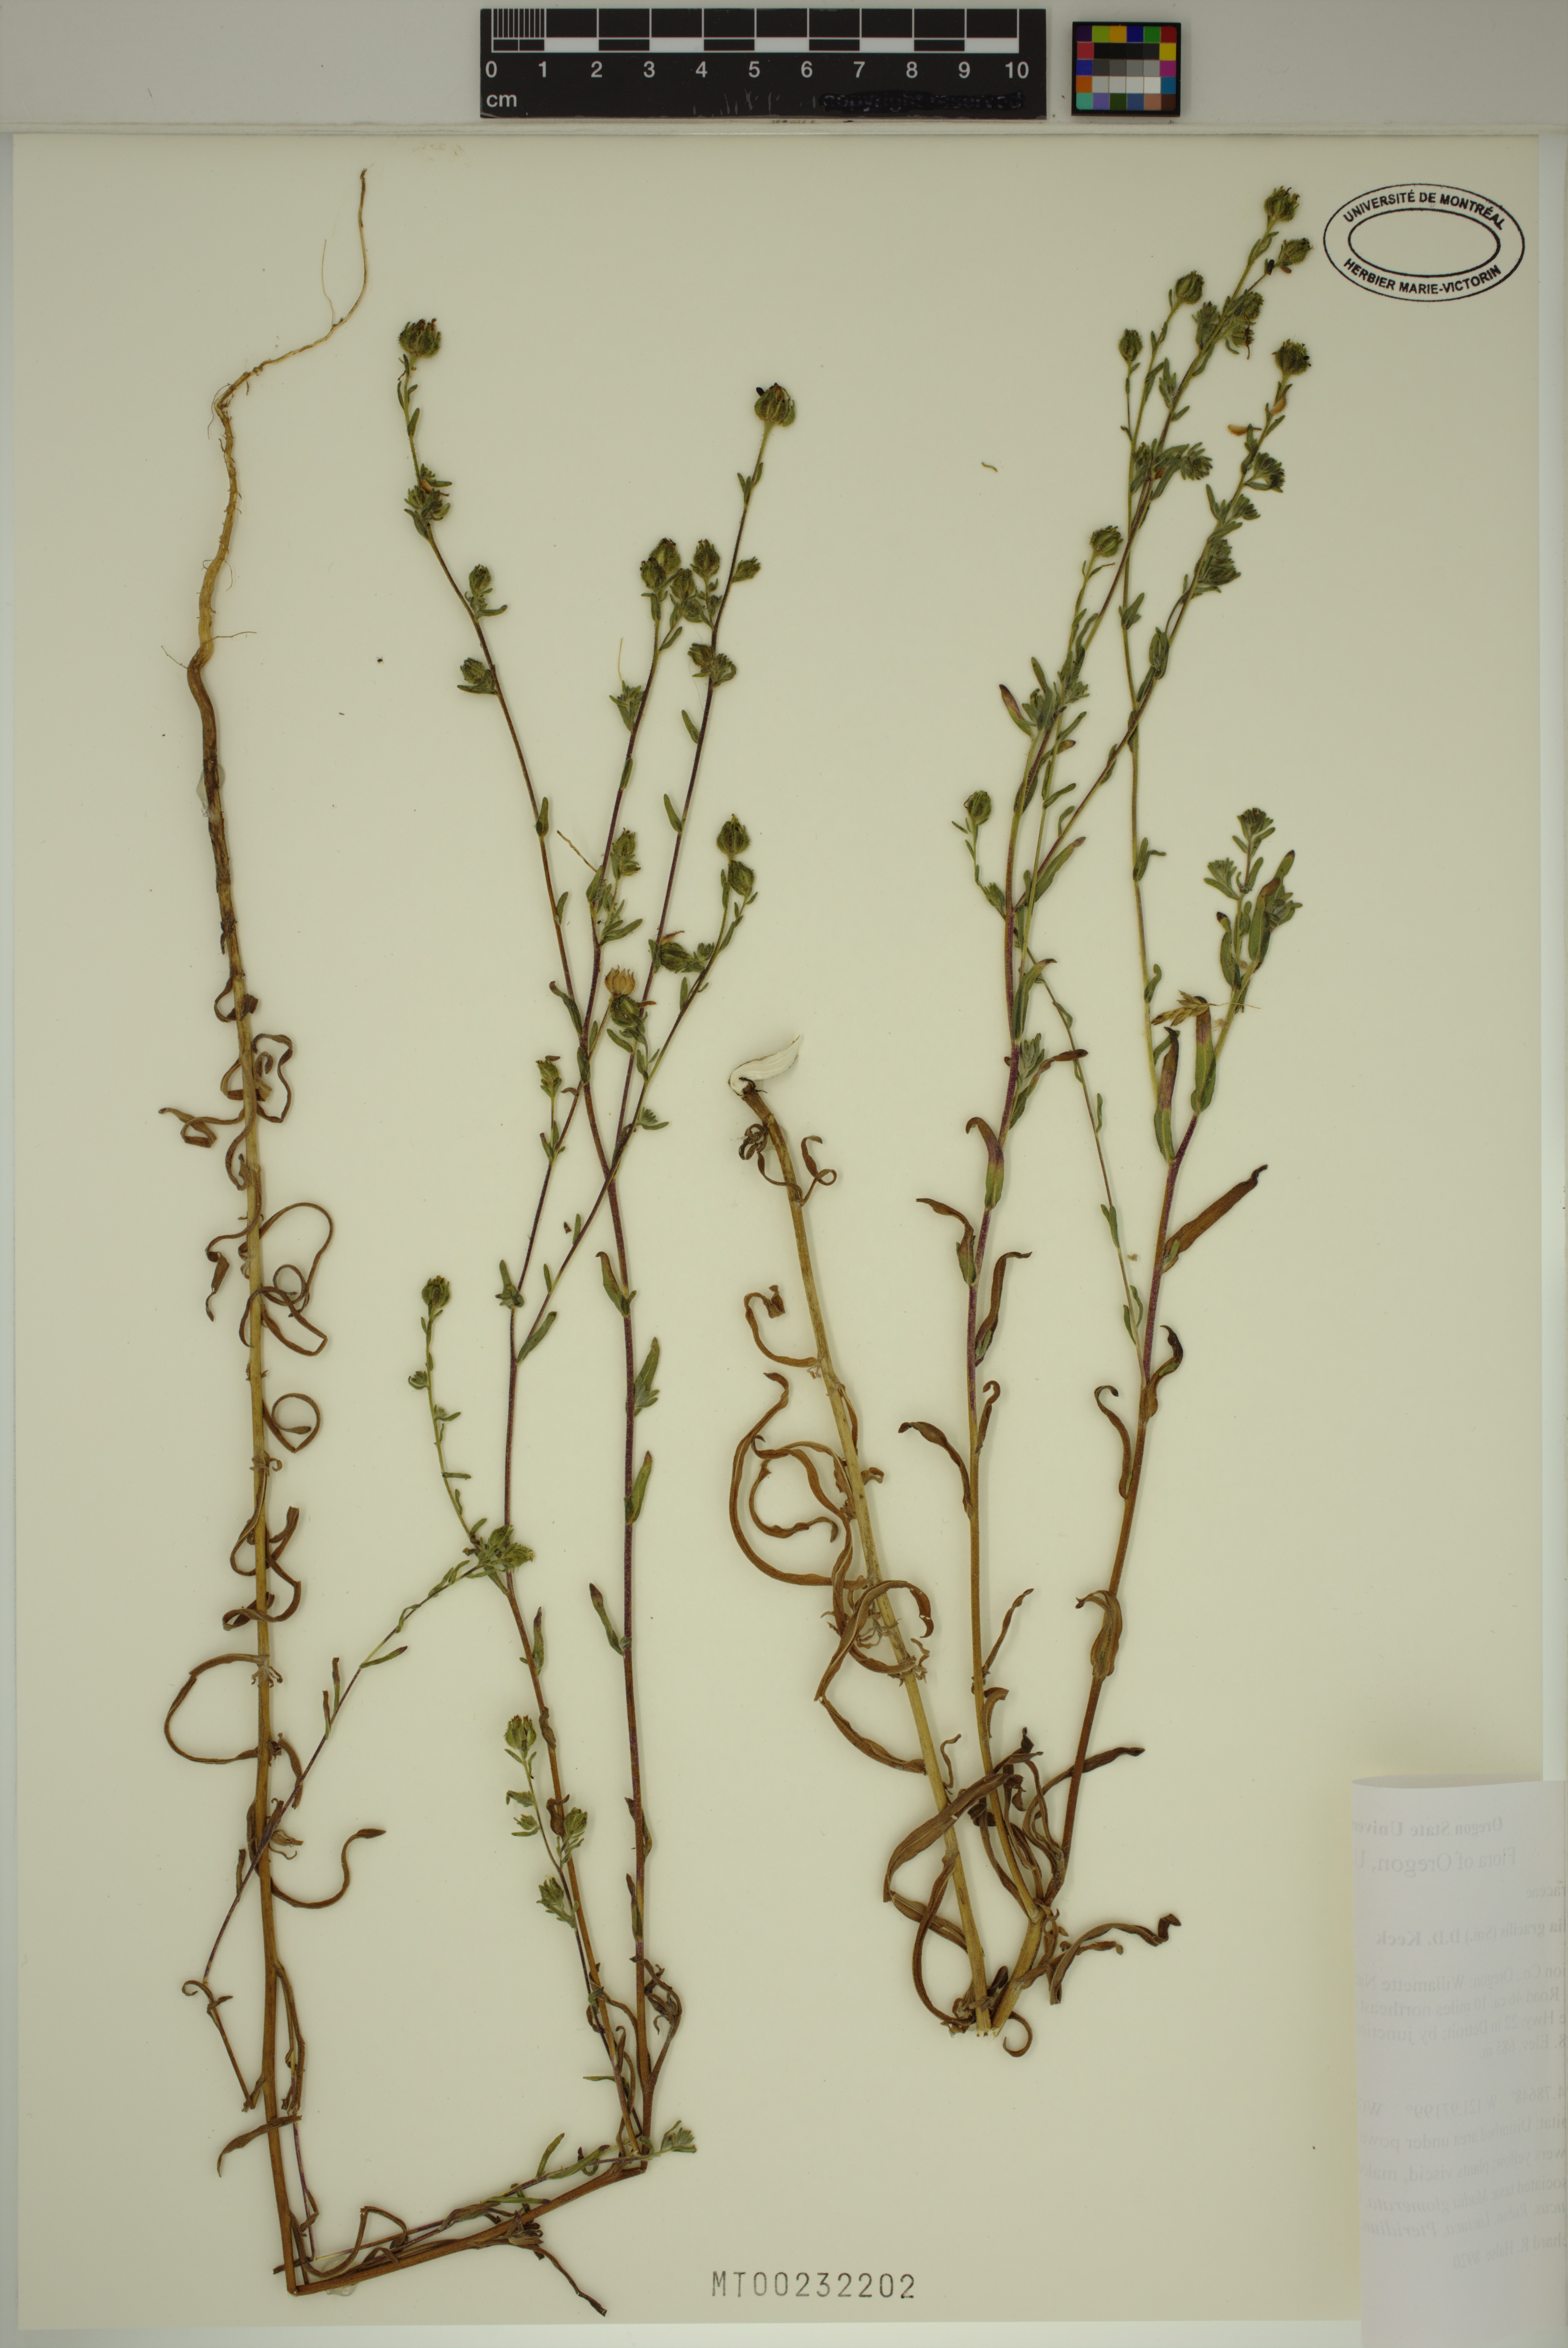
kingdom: Plantae
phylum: Tracheophyta
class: Magnoliopsida
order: Asterales
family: Asteraceae
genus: Madia
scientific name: Madia gracilis
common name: Grassy tarweed
